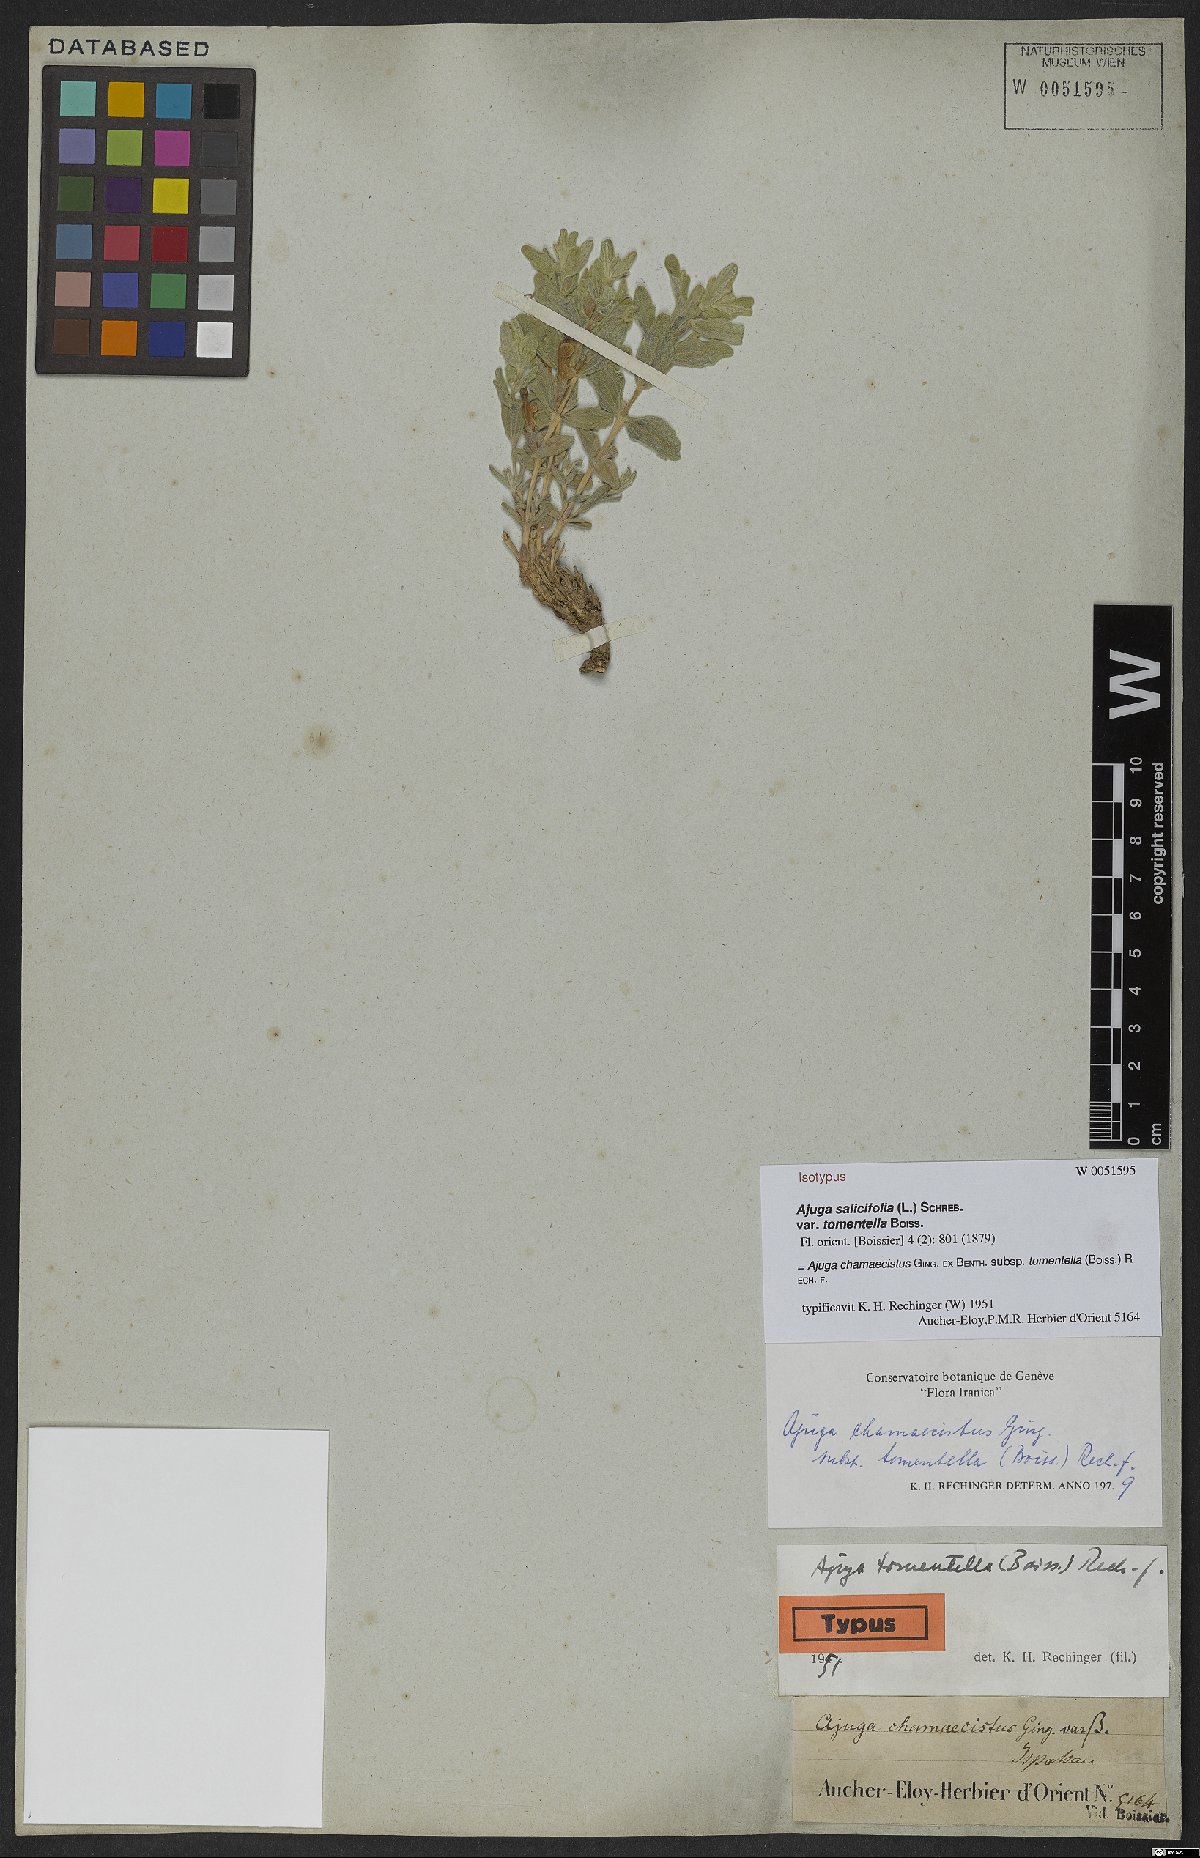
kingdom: Plantae
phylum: Tracheophyta
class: Magnoliopsida
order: Lamiales
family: Lamiaceae
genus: Ajuga
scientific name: Ajuga chamaecistus
